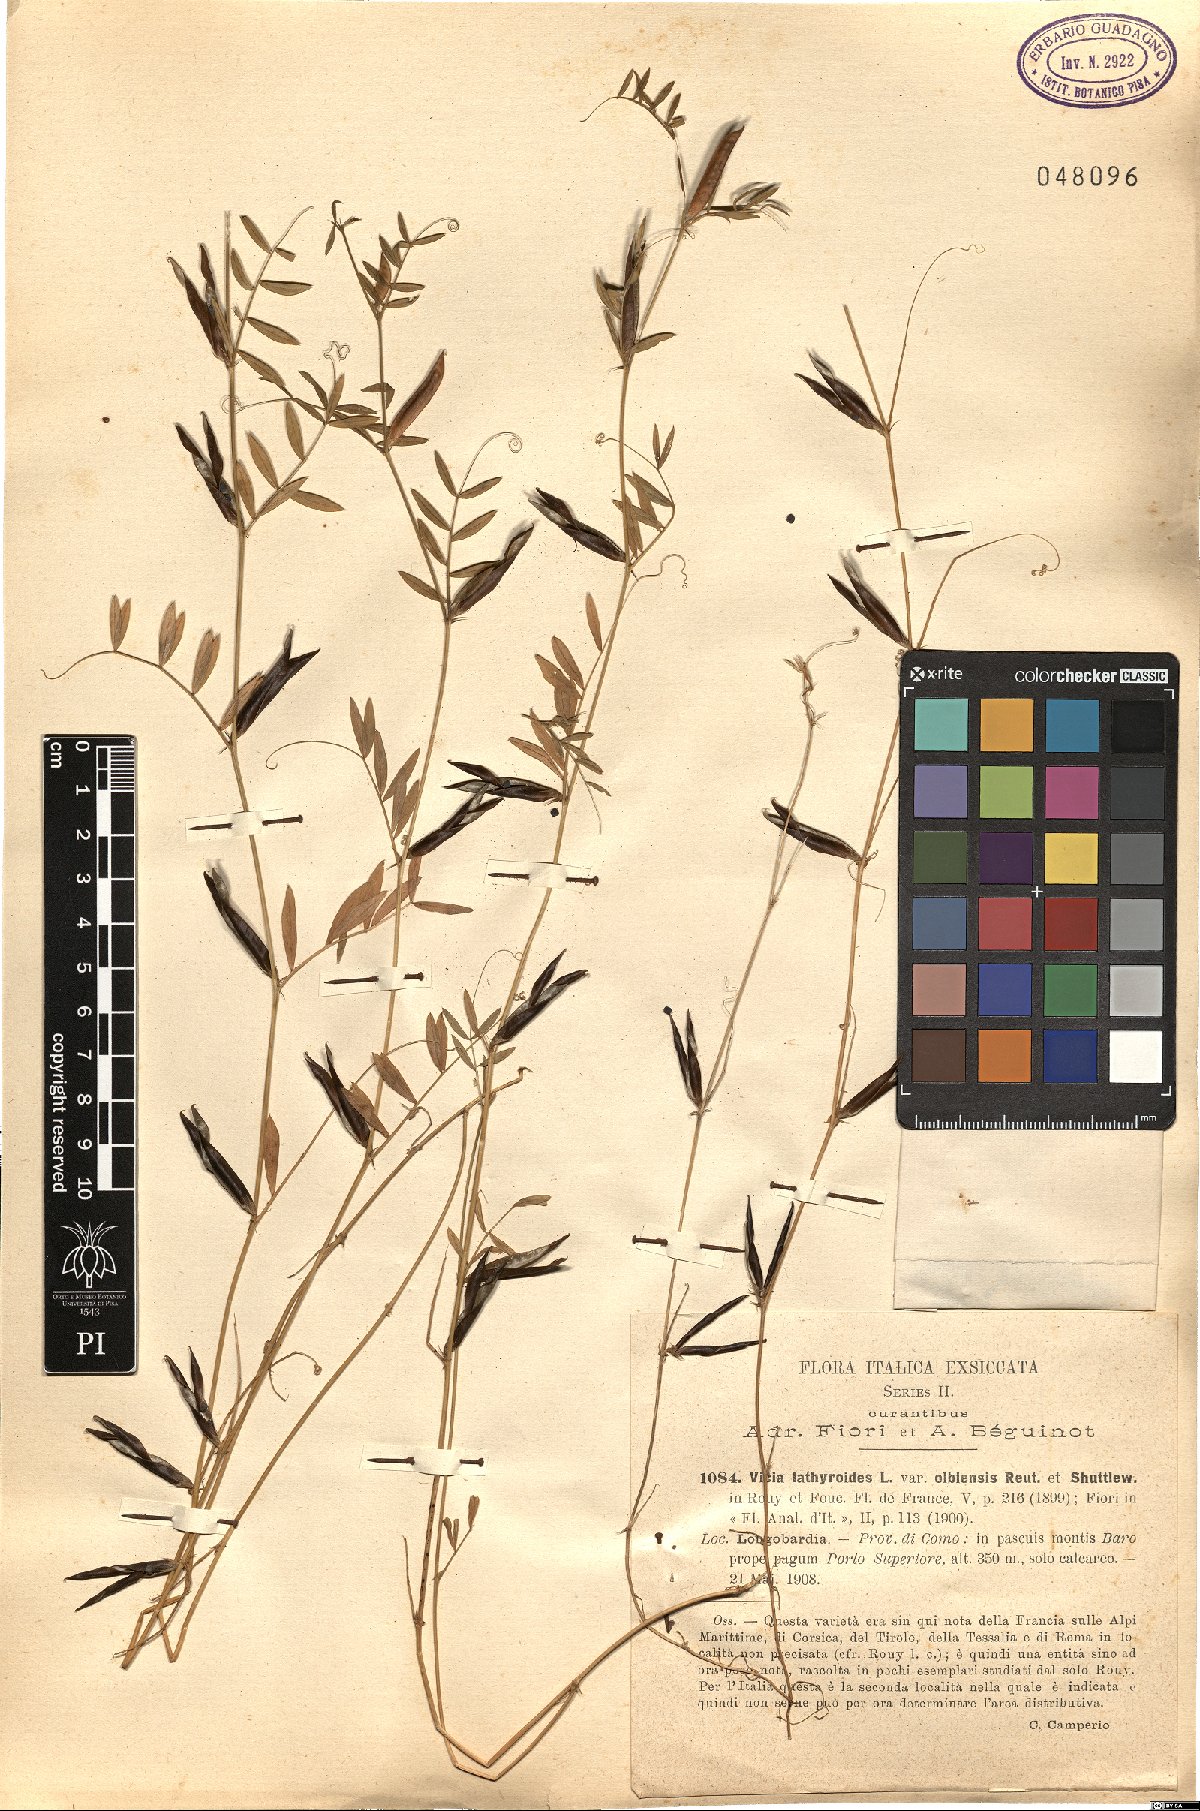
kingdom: Plantae
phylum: Tracheophyta
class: Magnoliopsida
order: Fabales
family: Fabaceae
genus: Vicia
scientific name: Vicia lathyroides
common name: Spring vetch
